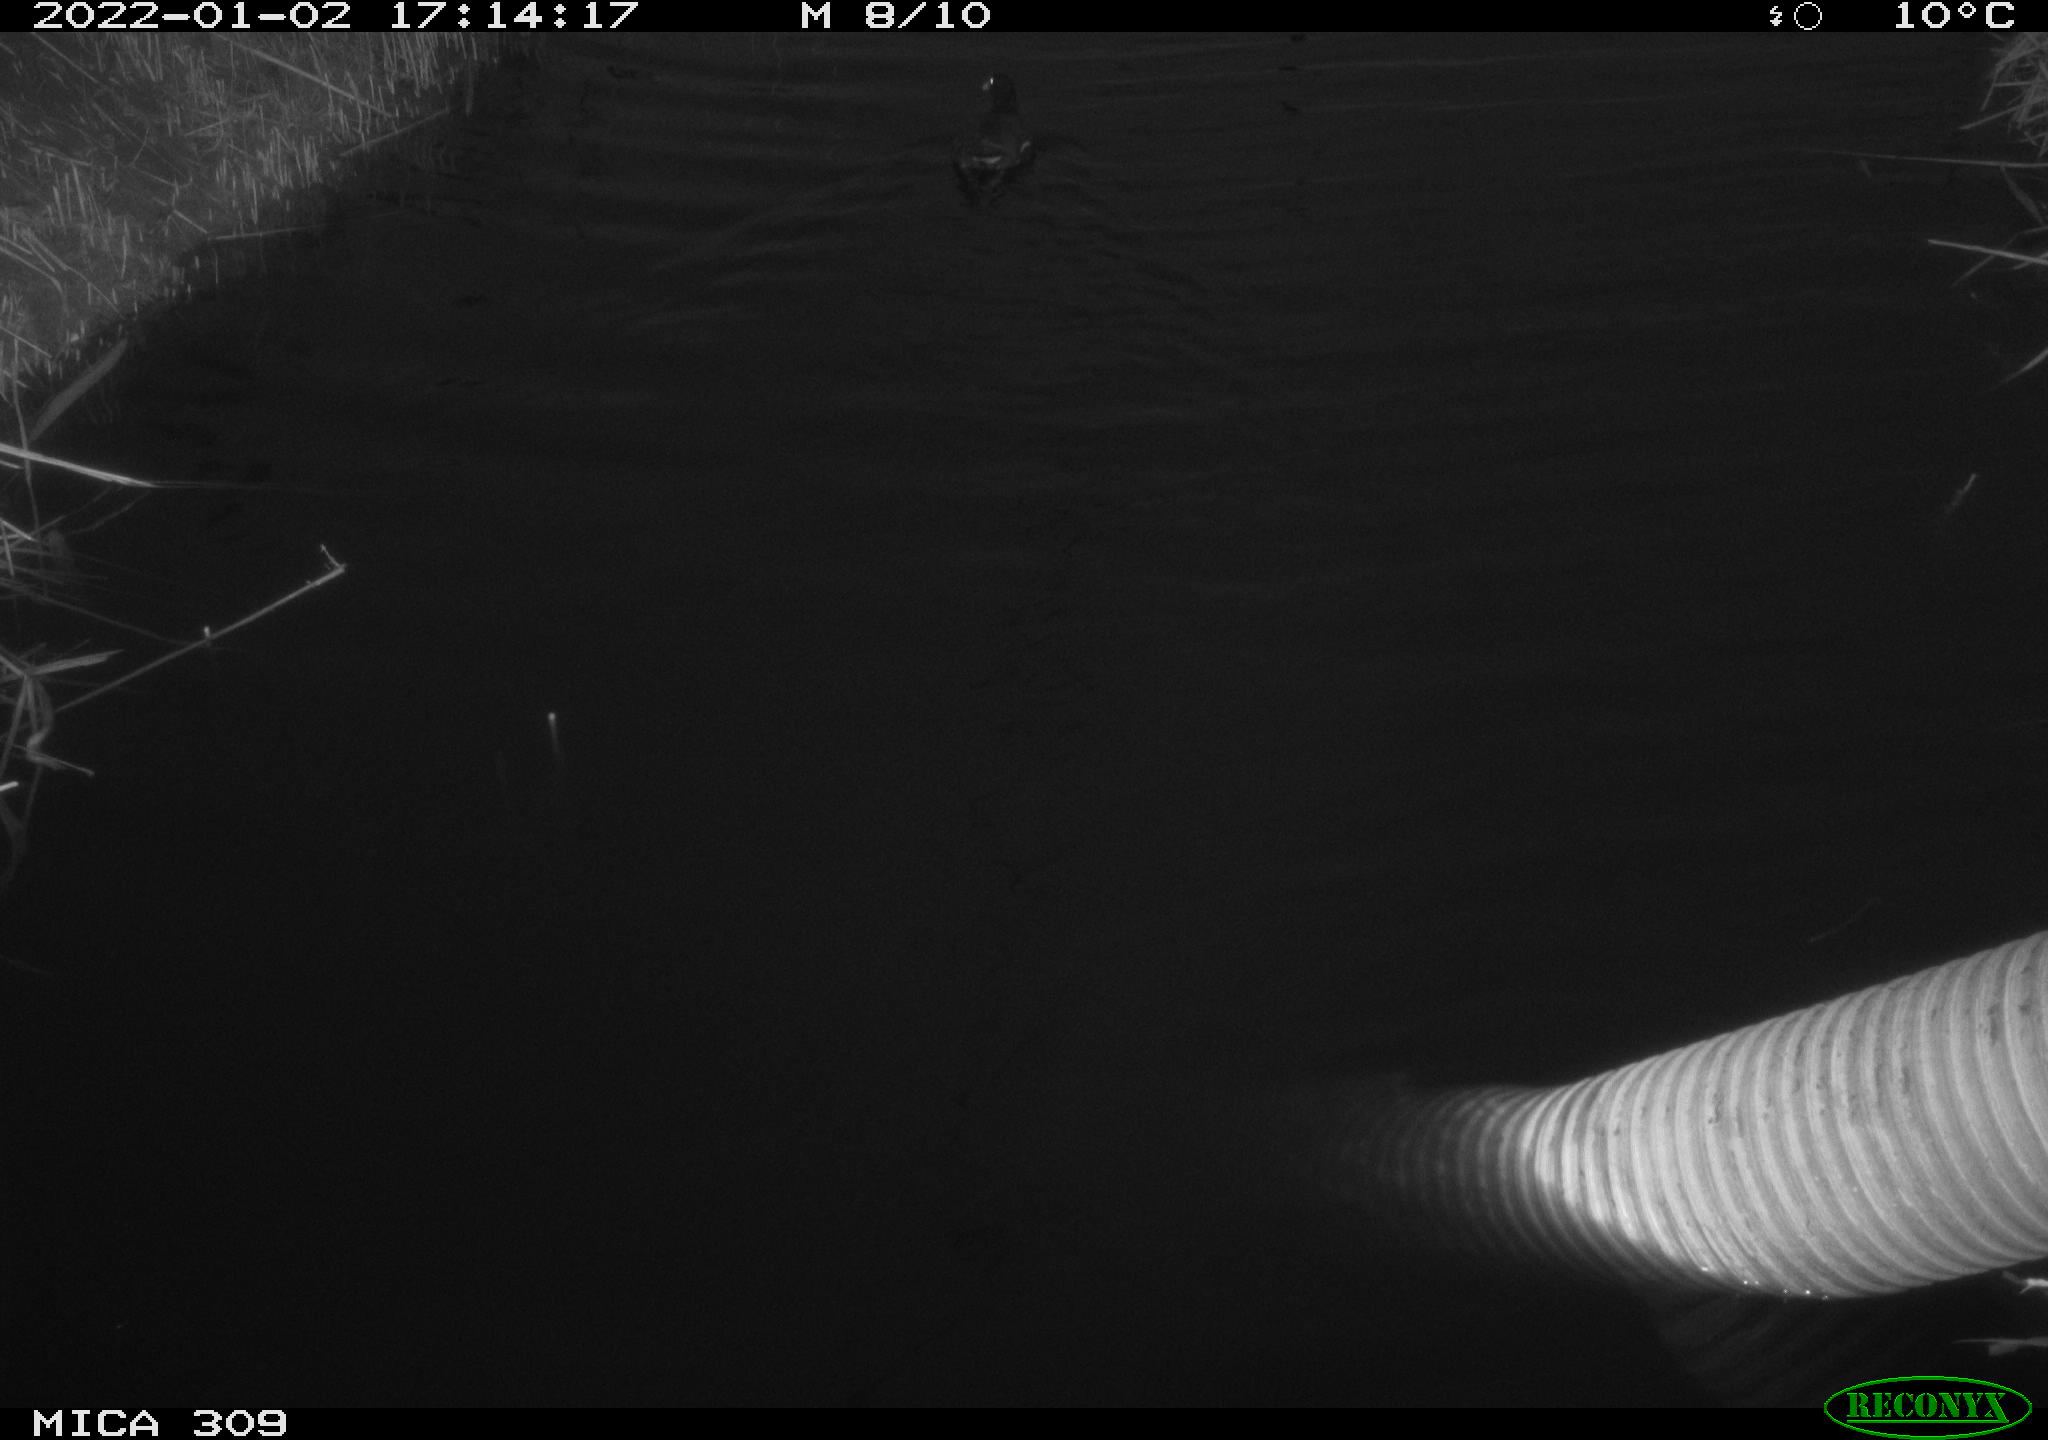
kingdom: Animalia
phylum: Chordata
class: Aves
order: Gruiformes
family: Rallidae
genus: Gallinula
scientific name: Gallinula chloropus
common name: Common moorhen
